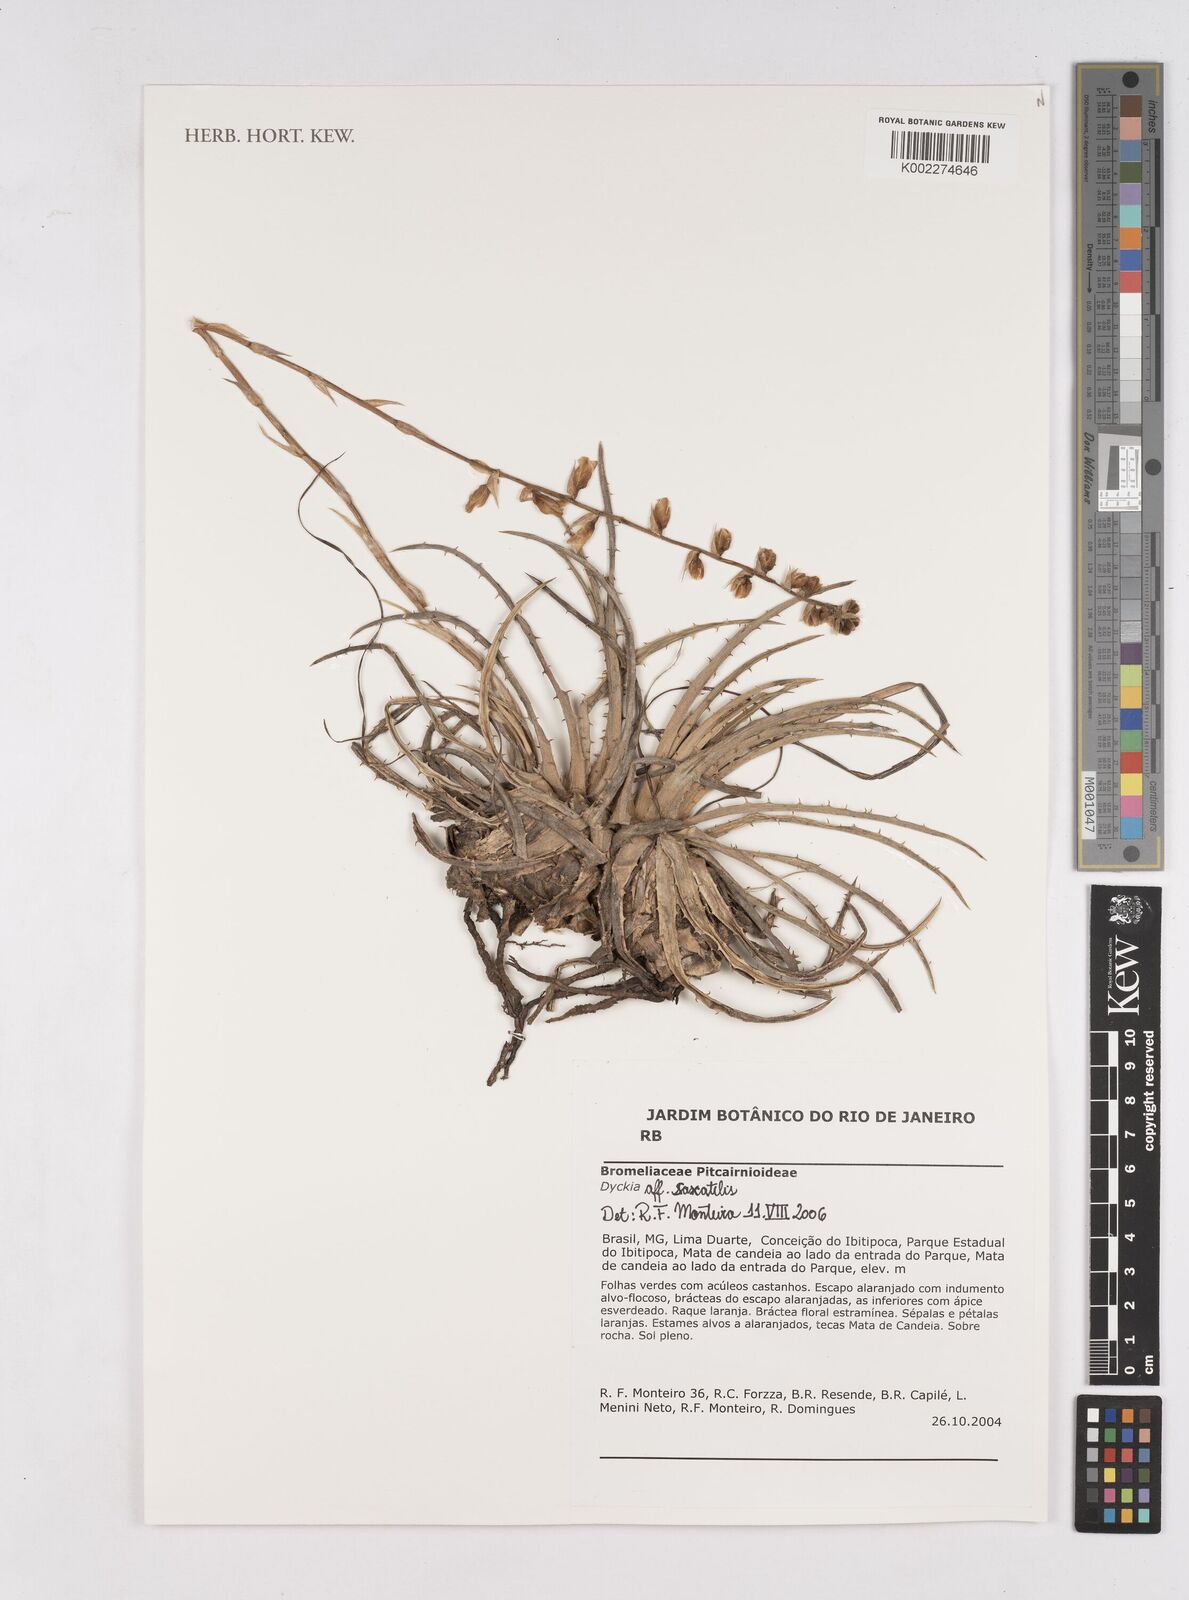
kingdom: Plantae
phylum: Tracheophyta
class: Liliopsida
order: Poales
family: Bromeliaceae
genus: Dyckia
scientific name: Dyckia saxatilis
